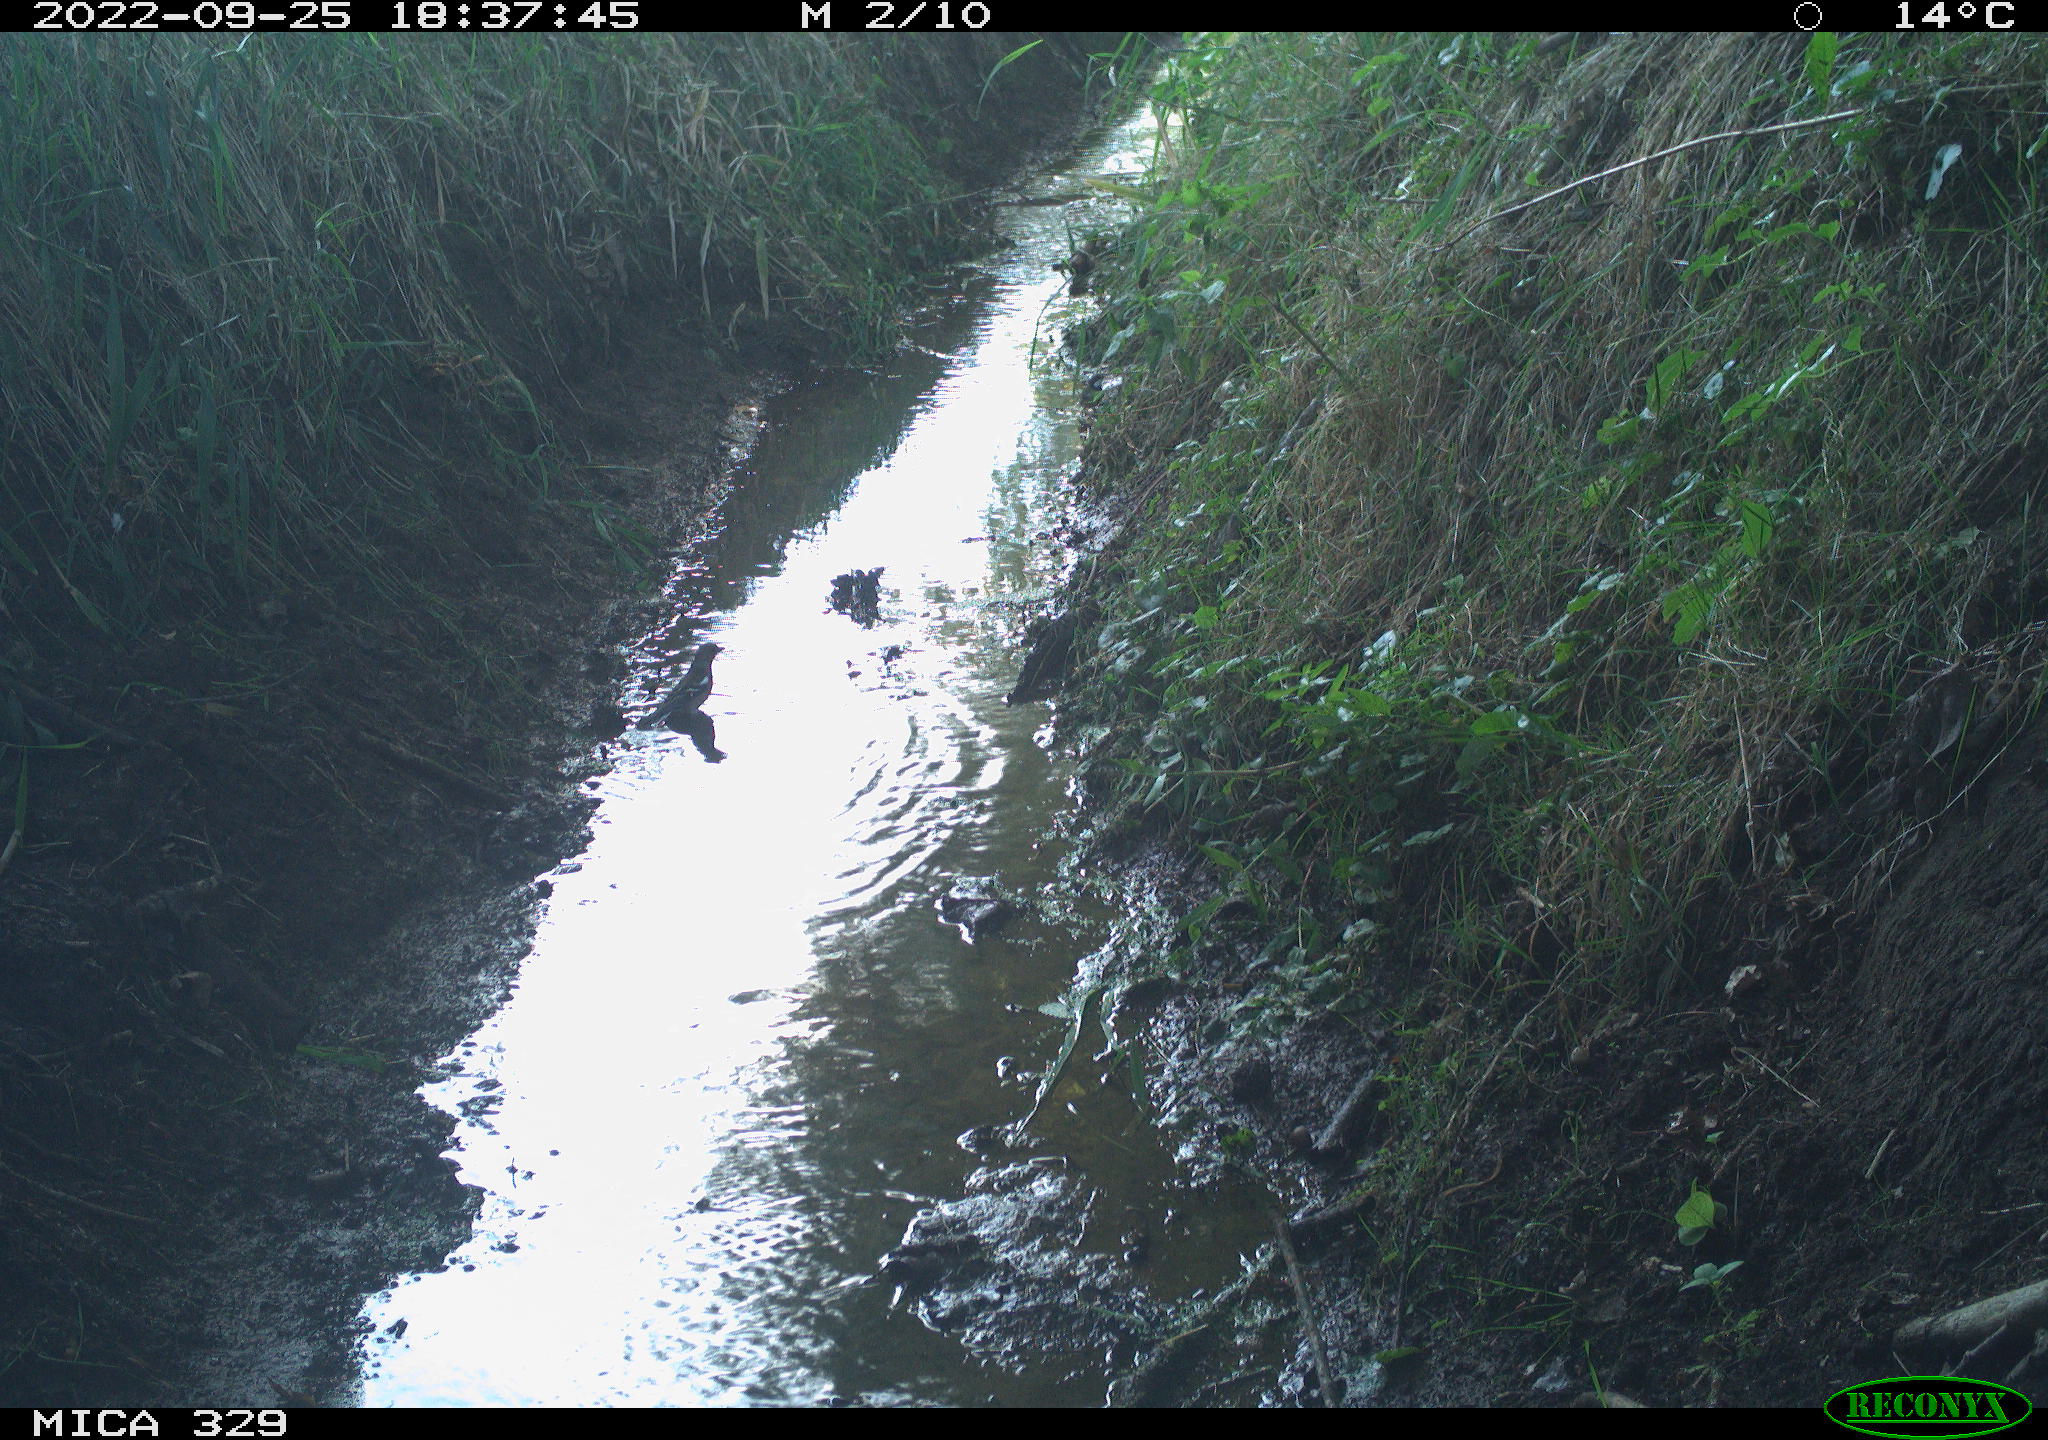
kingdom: Animalia
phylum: Chordata
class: Aves
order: Passeriformes
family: Fringillidae
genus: Fringilla
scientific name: Fringilla coelebs
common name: Common chaffinch
